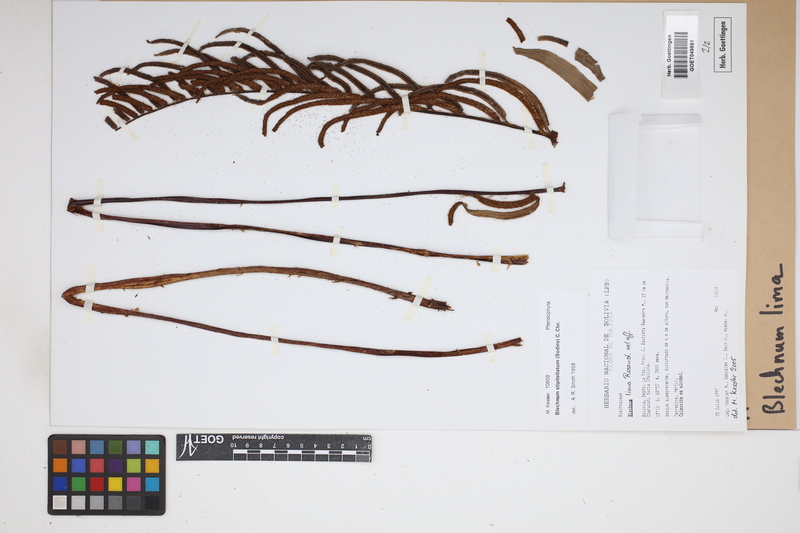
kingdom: Plantae
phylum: Tracheophyta
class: Polypodiopsida
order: Polypodiales
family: Blechnaceae
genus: Parablechnum
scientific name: Parablechnum lima
